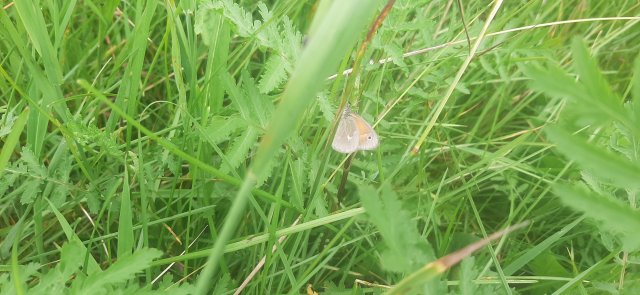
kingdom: Animalia
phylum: Arthropoda
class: Insecta
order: Lepidoptera
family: Nymphalidae
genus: Coenonympha
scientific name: Coenonympha california
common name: California Ringlet
